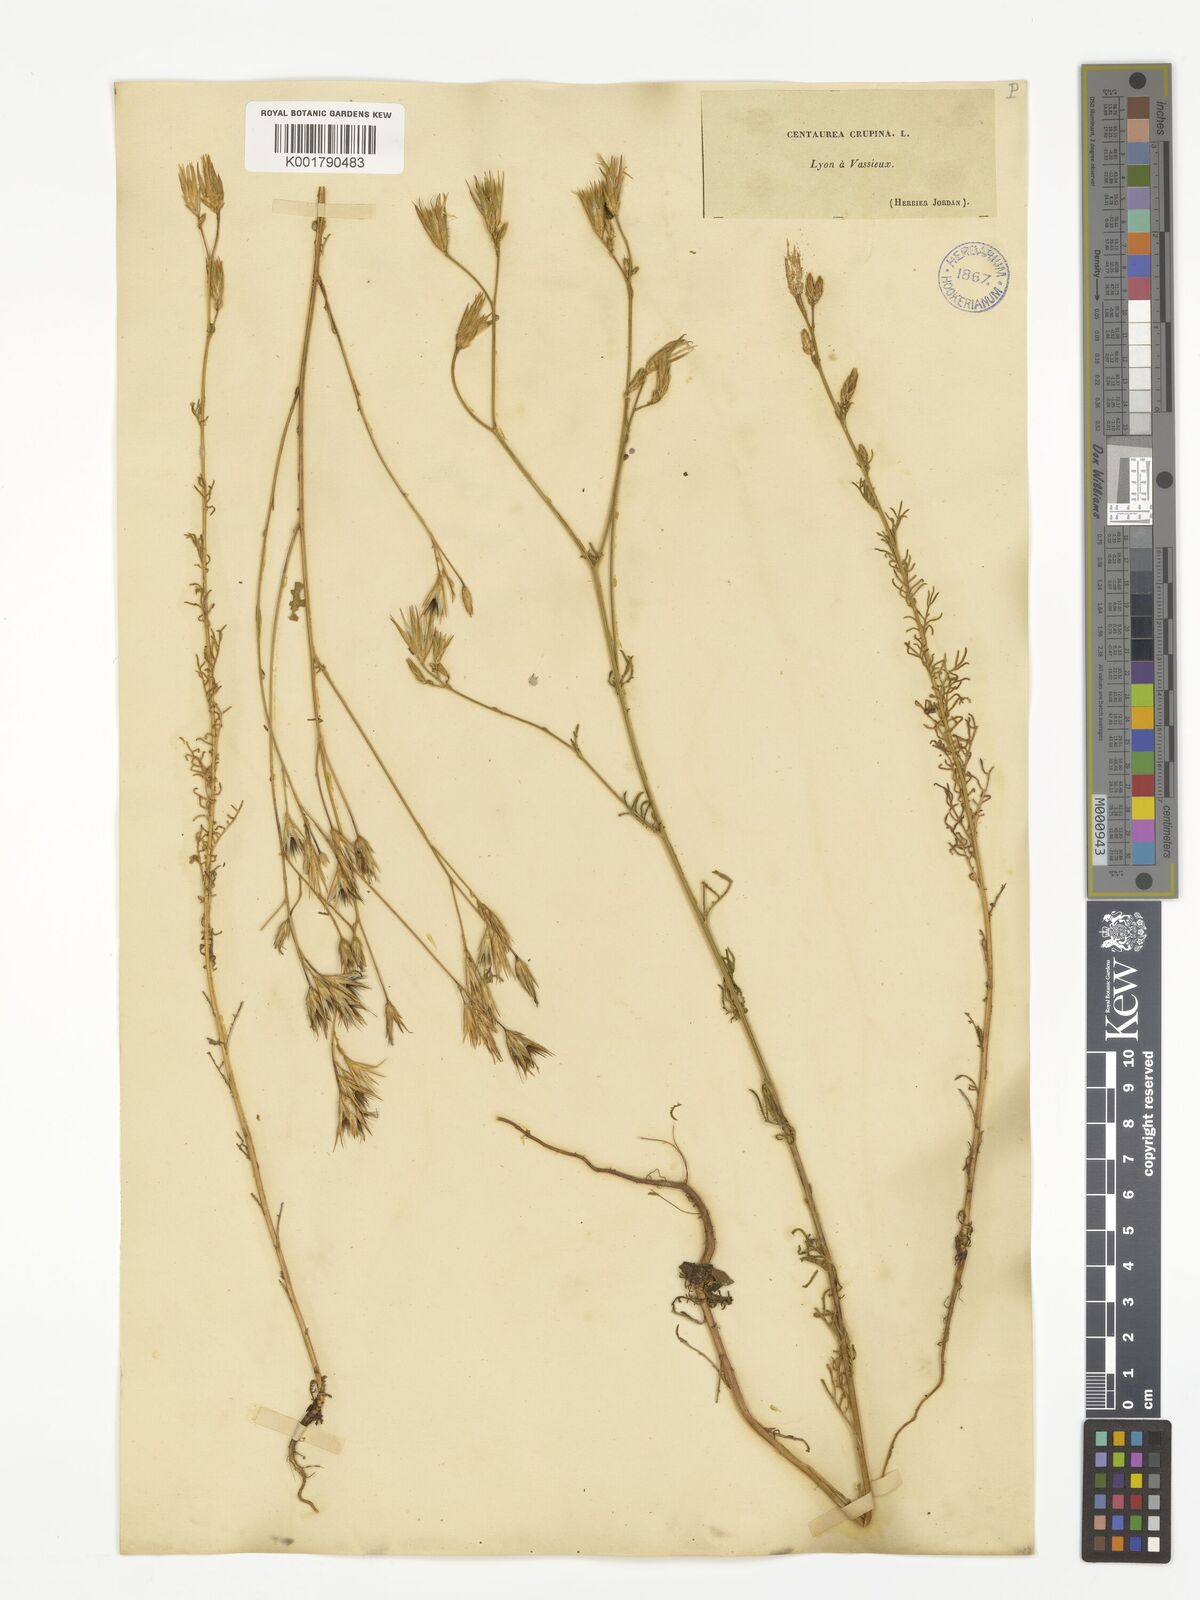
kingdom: Plantae
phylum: Tracheophyta
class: Magnoliopsida
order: Asterales
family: Asteraceae
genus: Crupina
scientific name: Crupina crupinastrum
